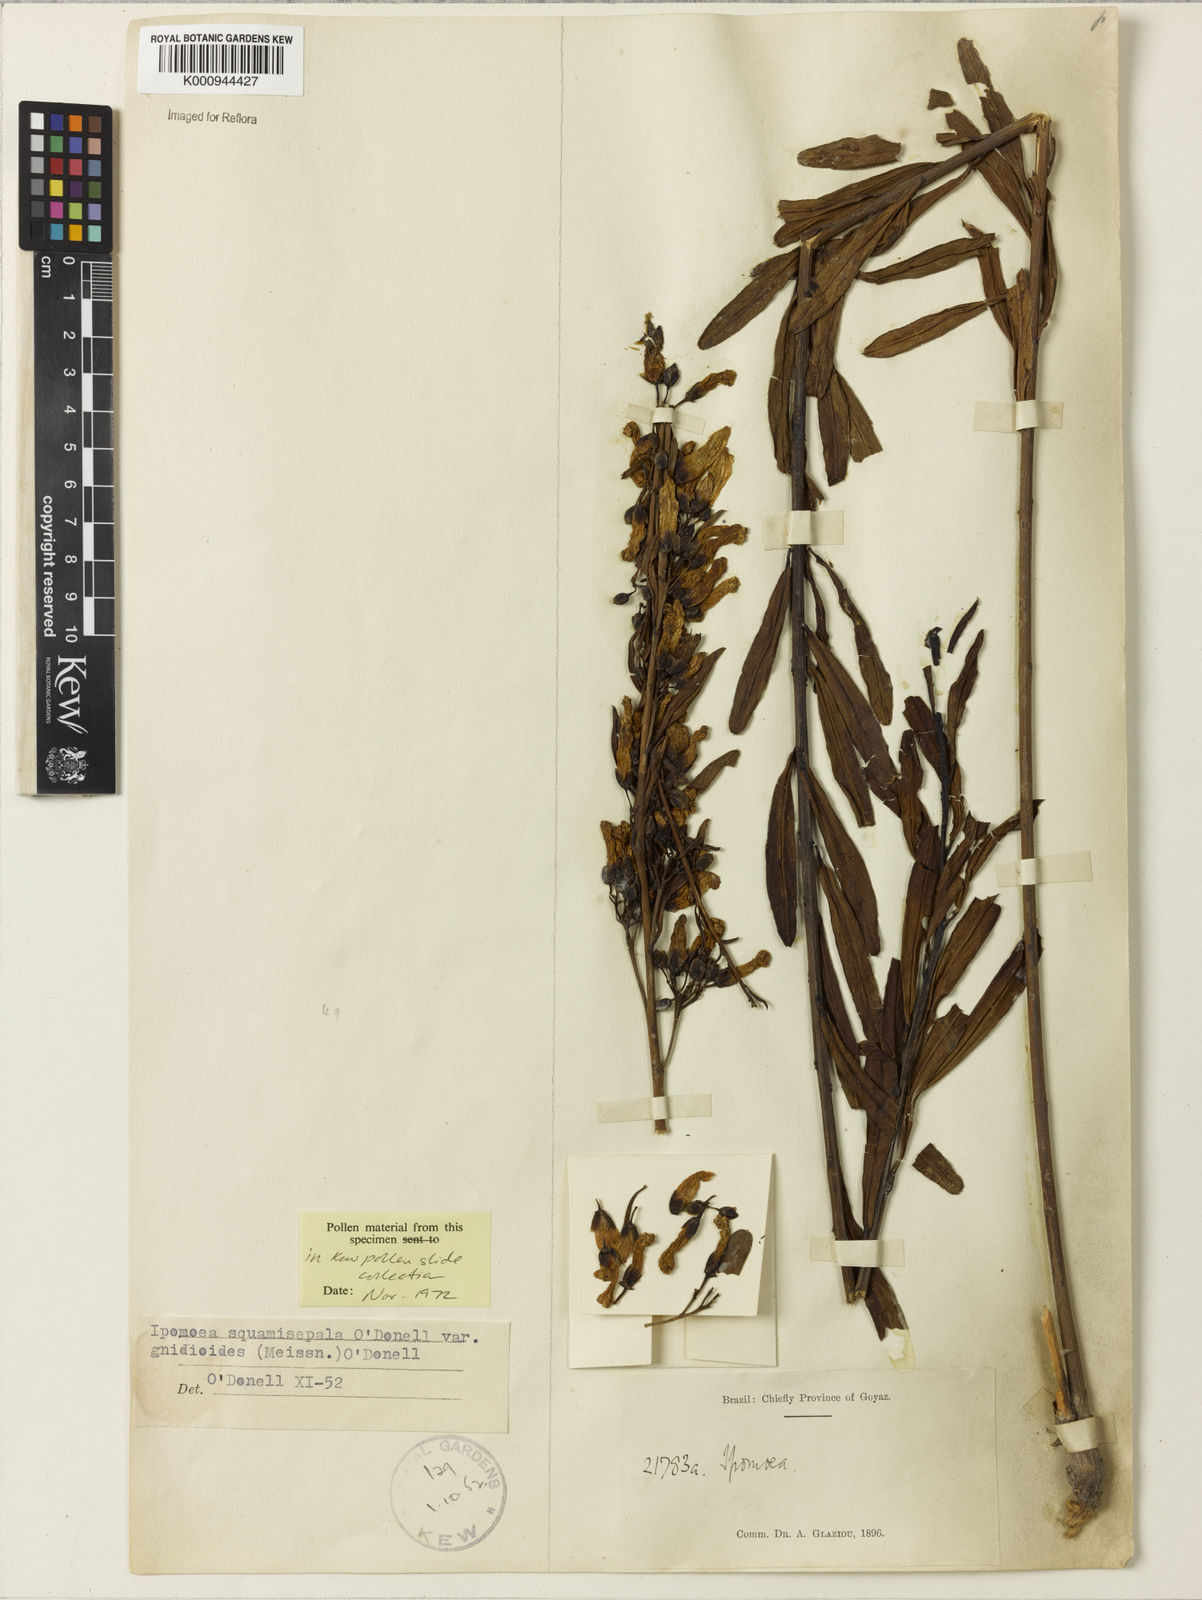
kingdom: Plantae
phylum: Tracheophyta
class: Magnoliopsida
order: Solanales
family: Convolvulaceae
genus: Ipomoea
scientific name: Ipomoea squamisepala
